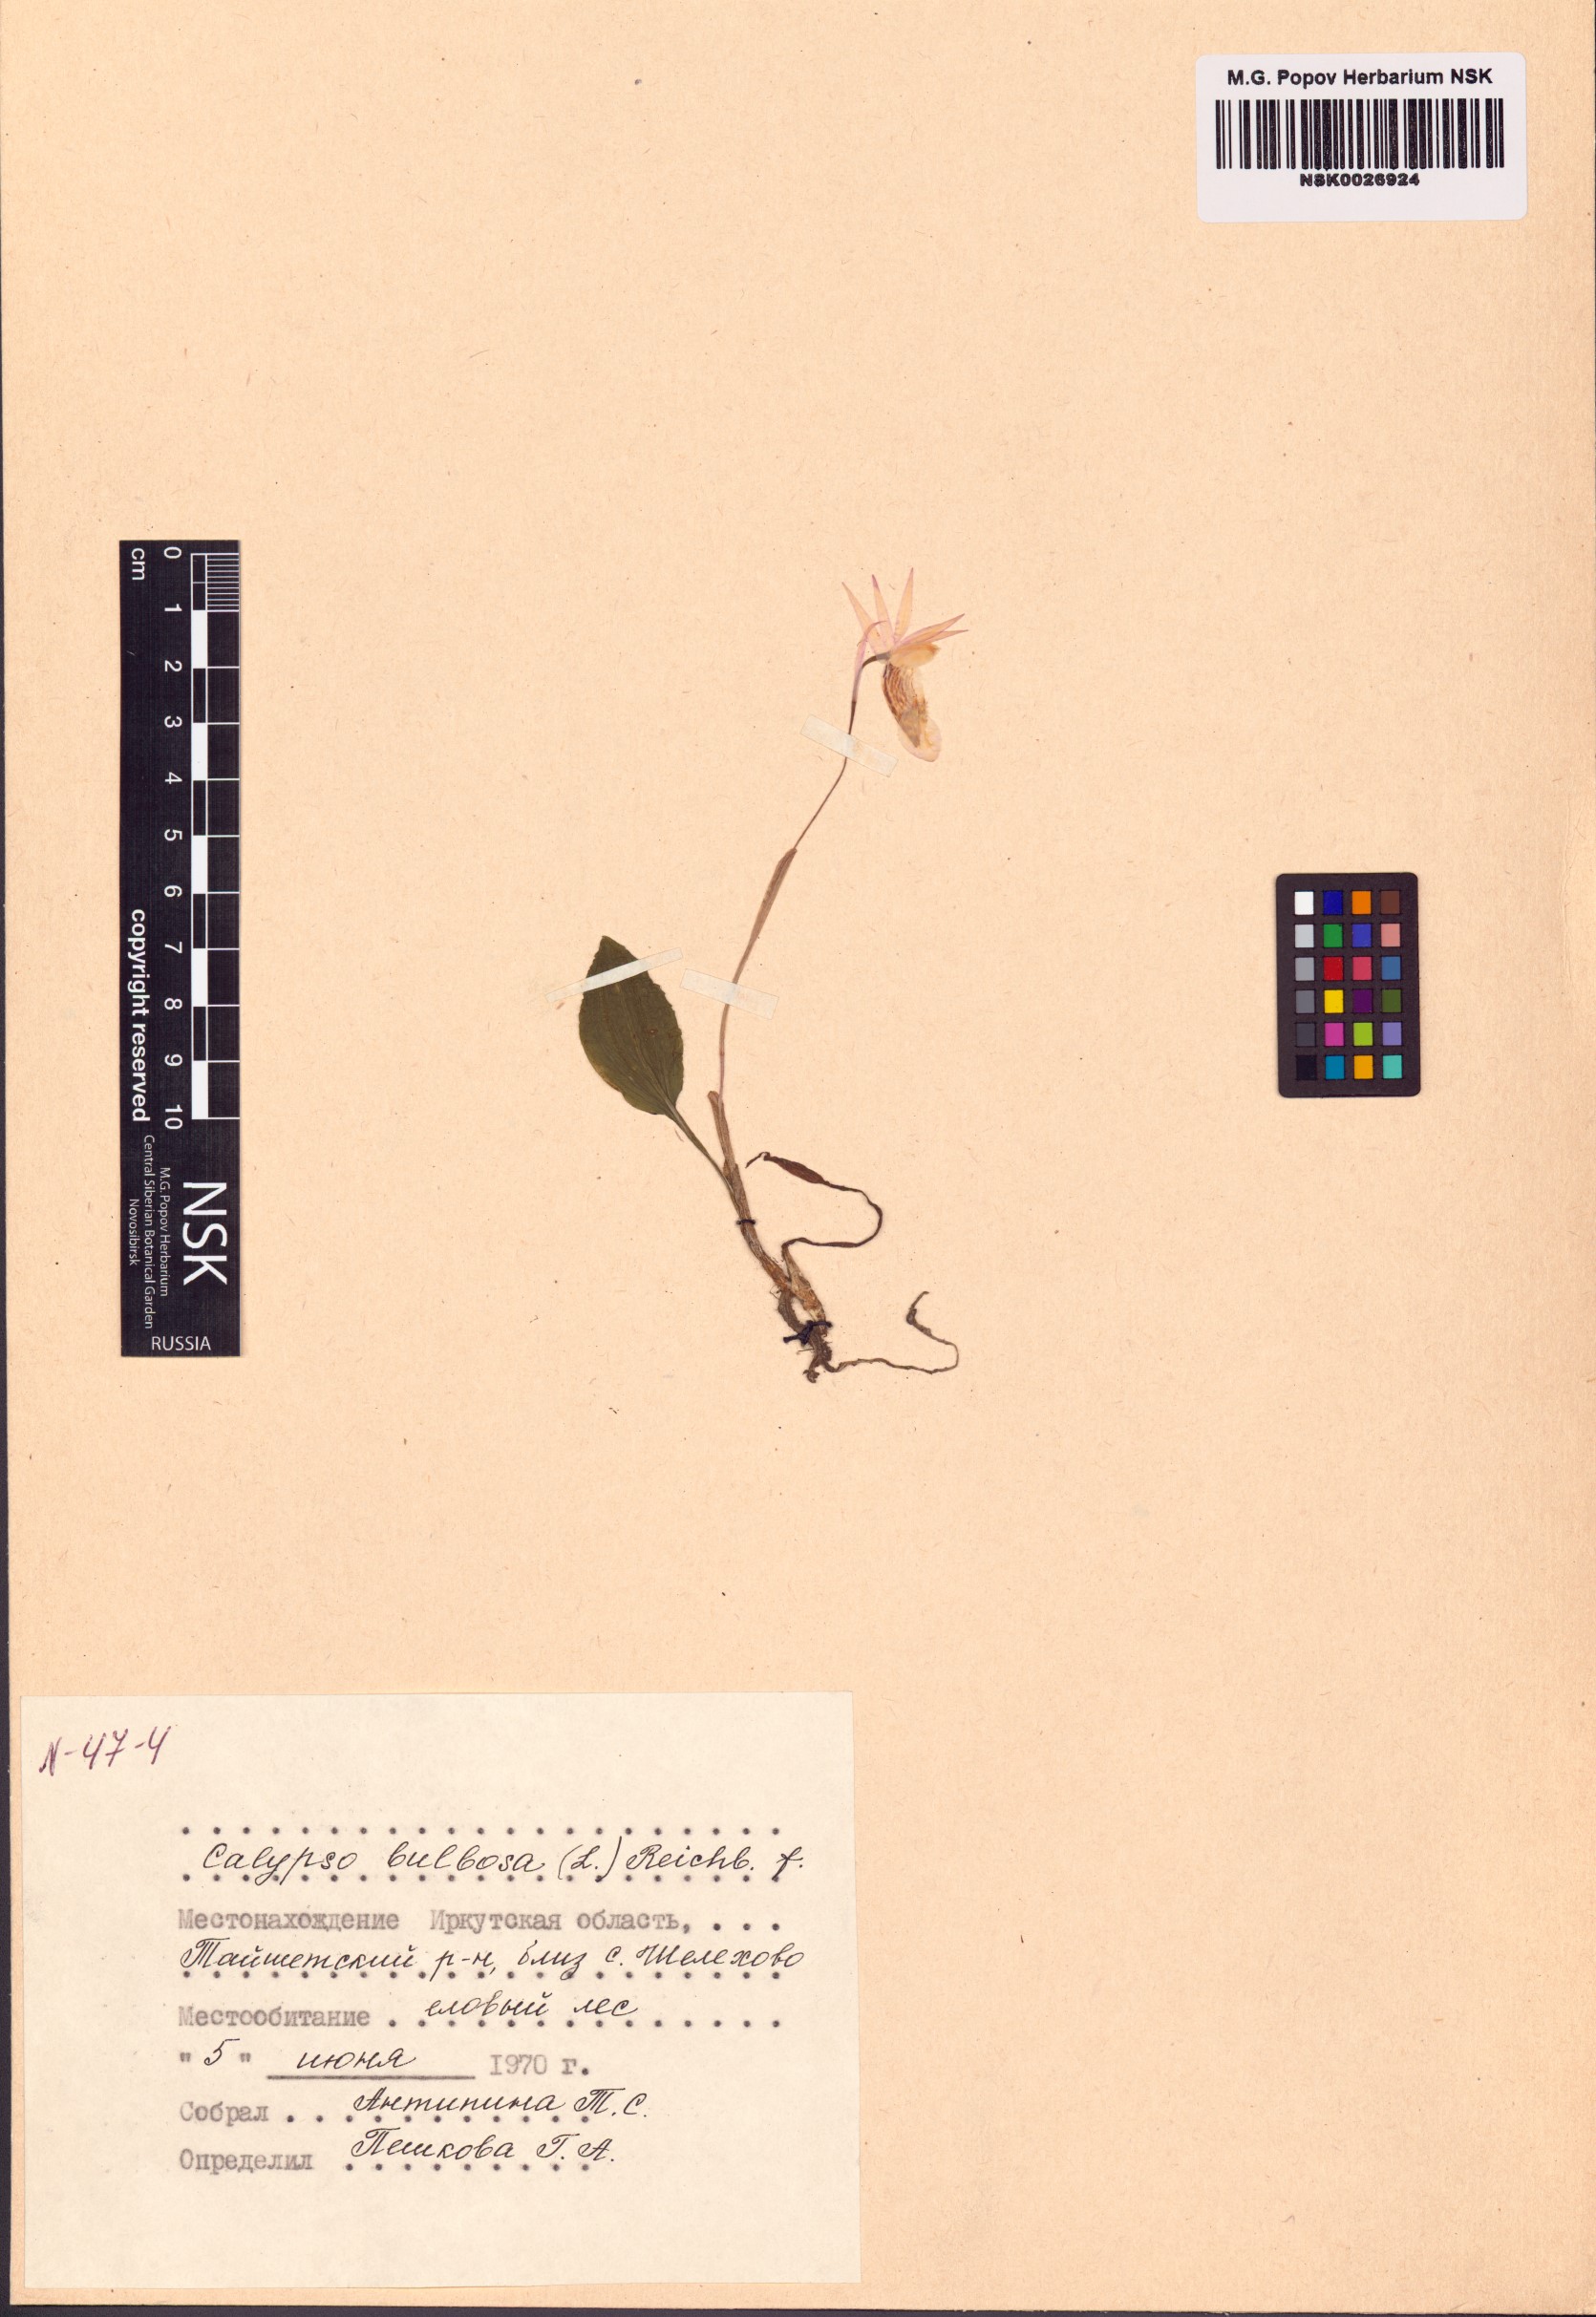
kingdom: Plantae
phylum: Tracheophyta
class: Liliopsida
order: Asparagales
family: Orchidaceae
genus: Calypso
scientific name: Calypso bulbosa
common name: Calypso
